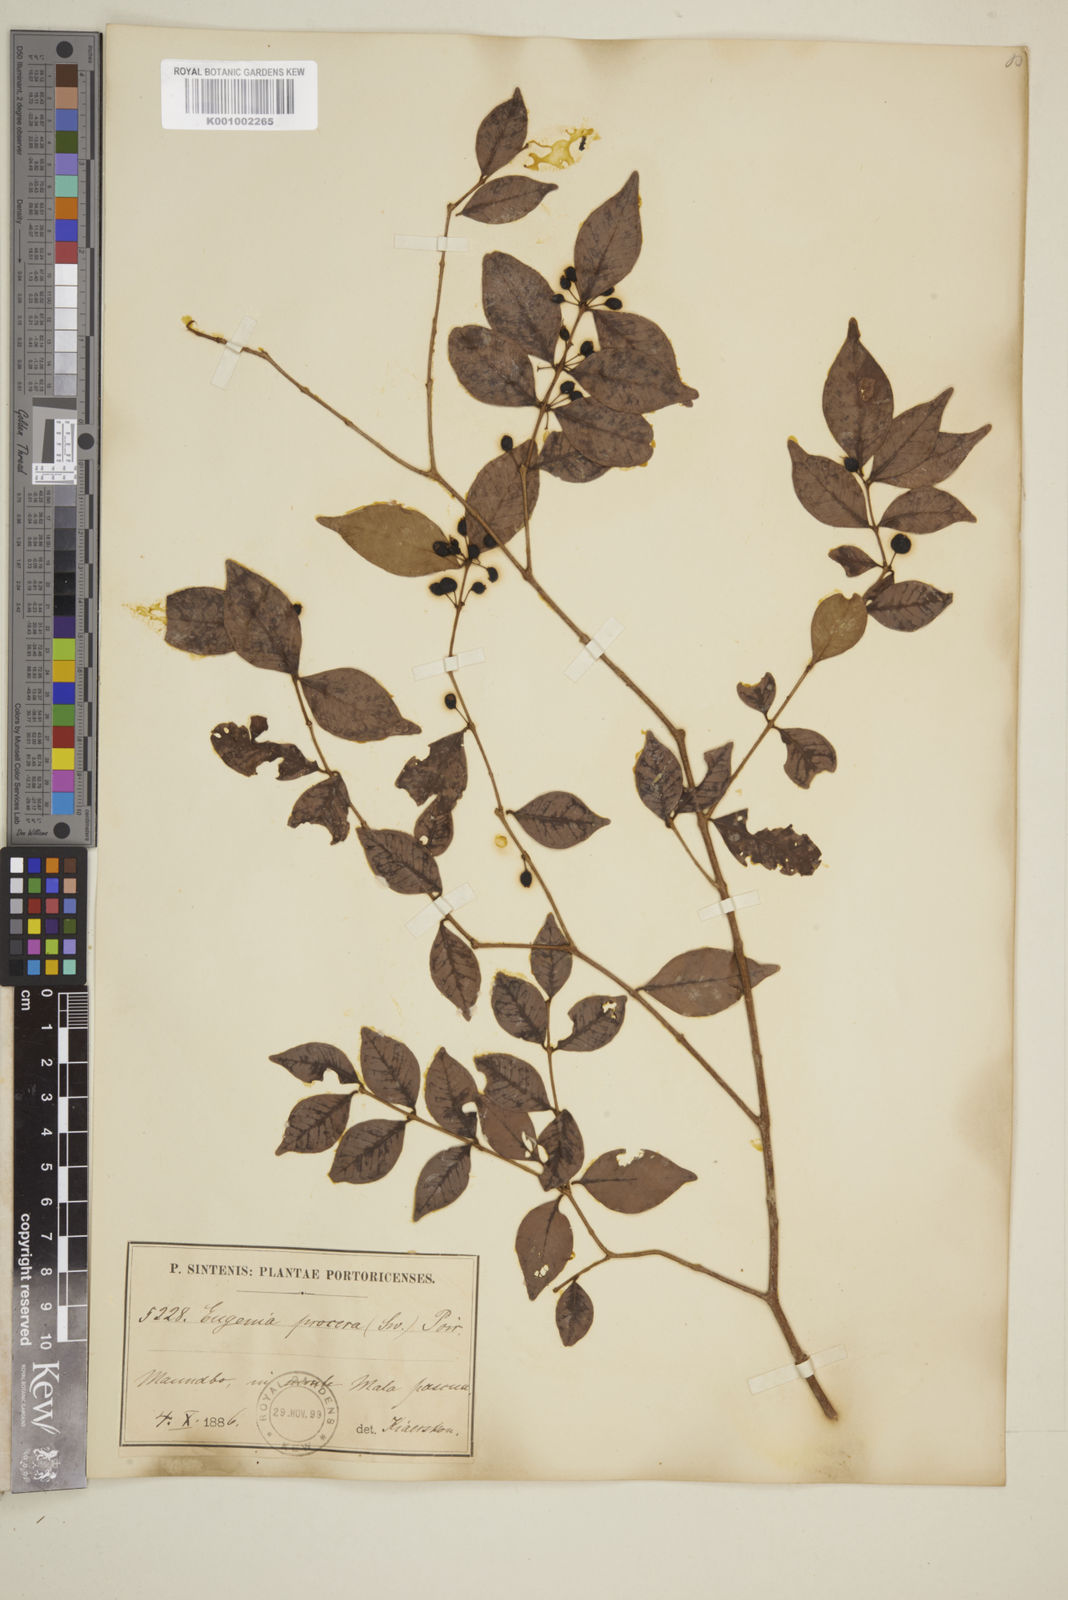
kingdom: Plantae
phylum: Tracheophyta
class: Magnoliopsida
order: Myrtales
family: Myrtaceae
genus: Eugenia
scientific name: Eugenia procera
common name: Bastard blackberry
